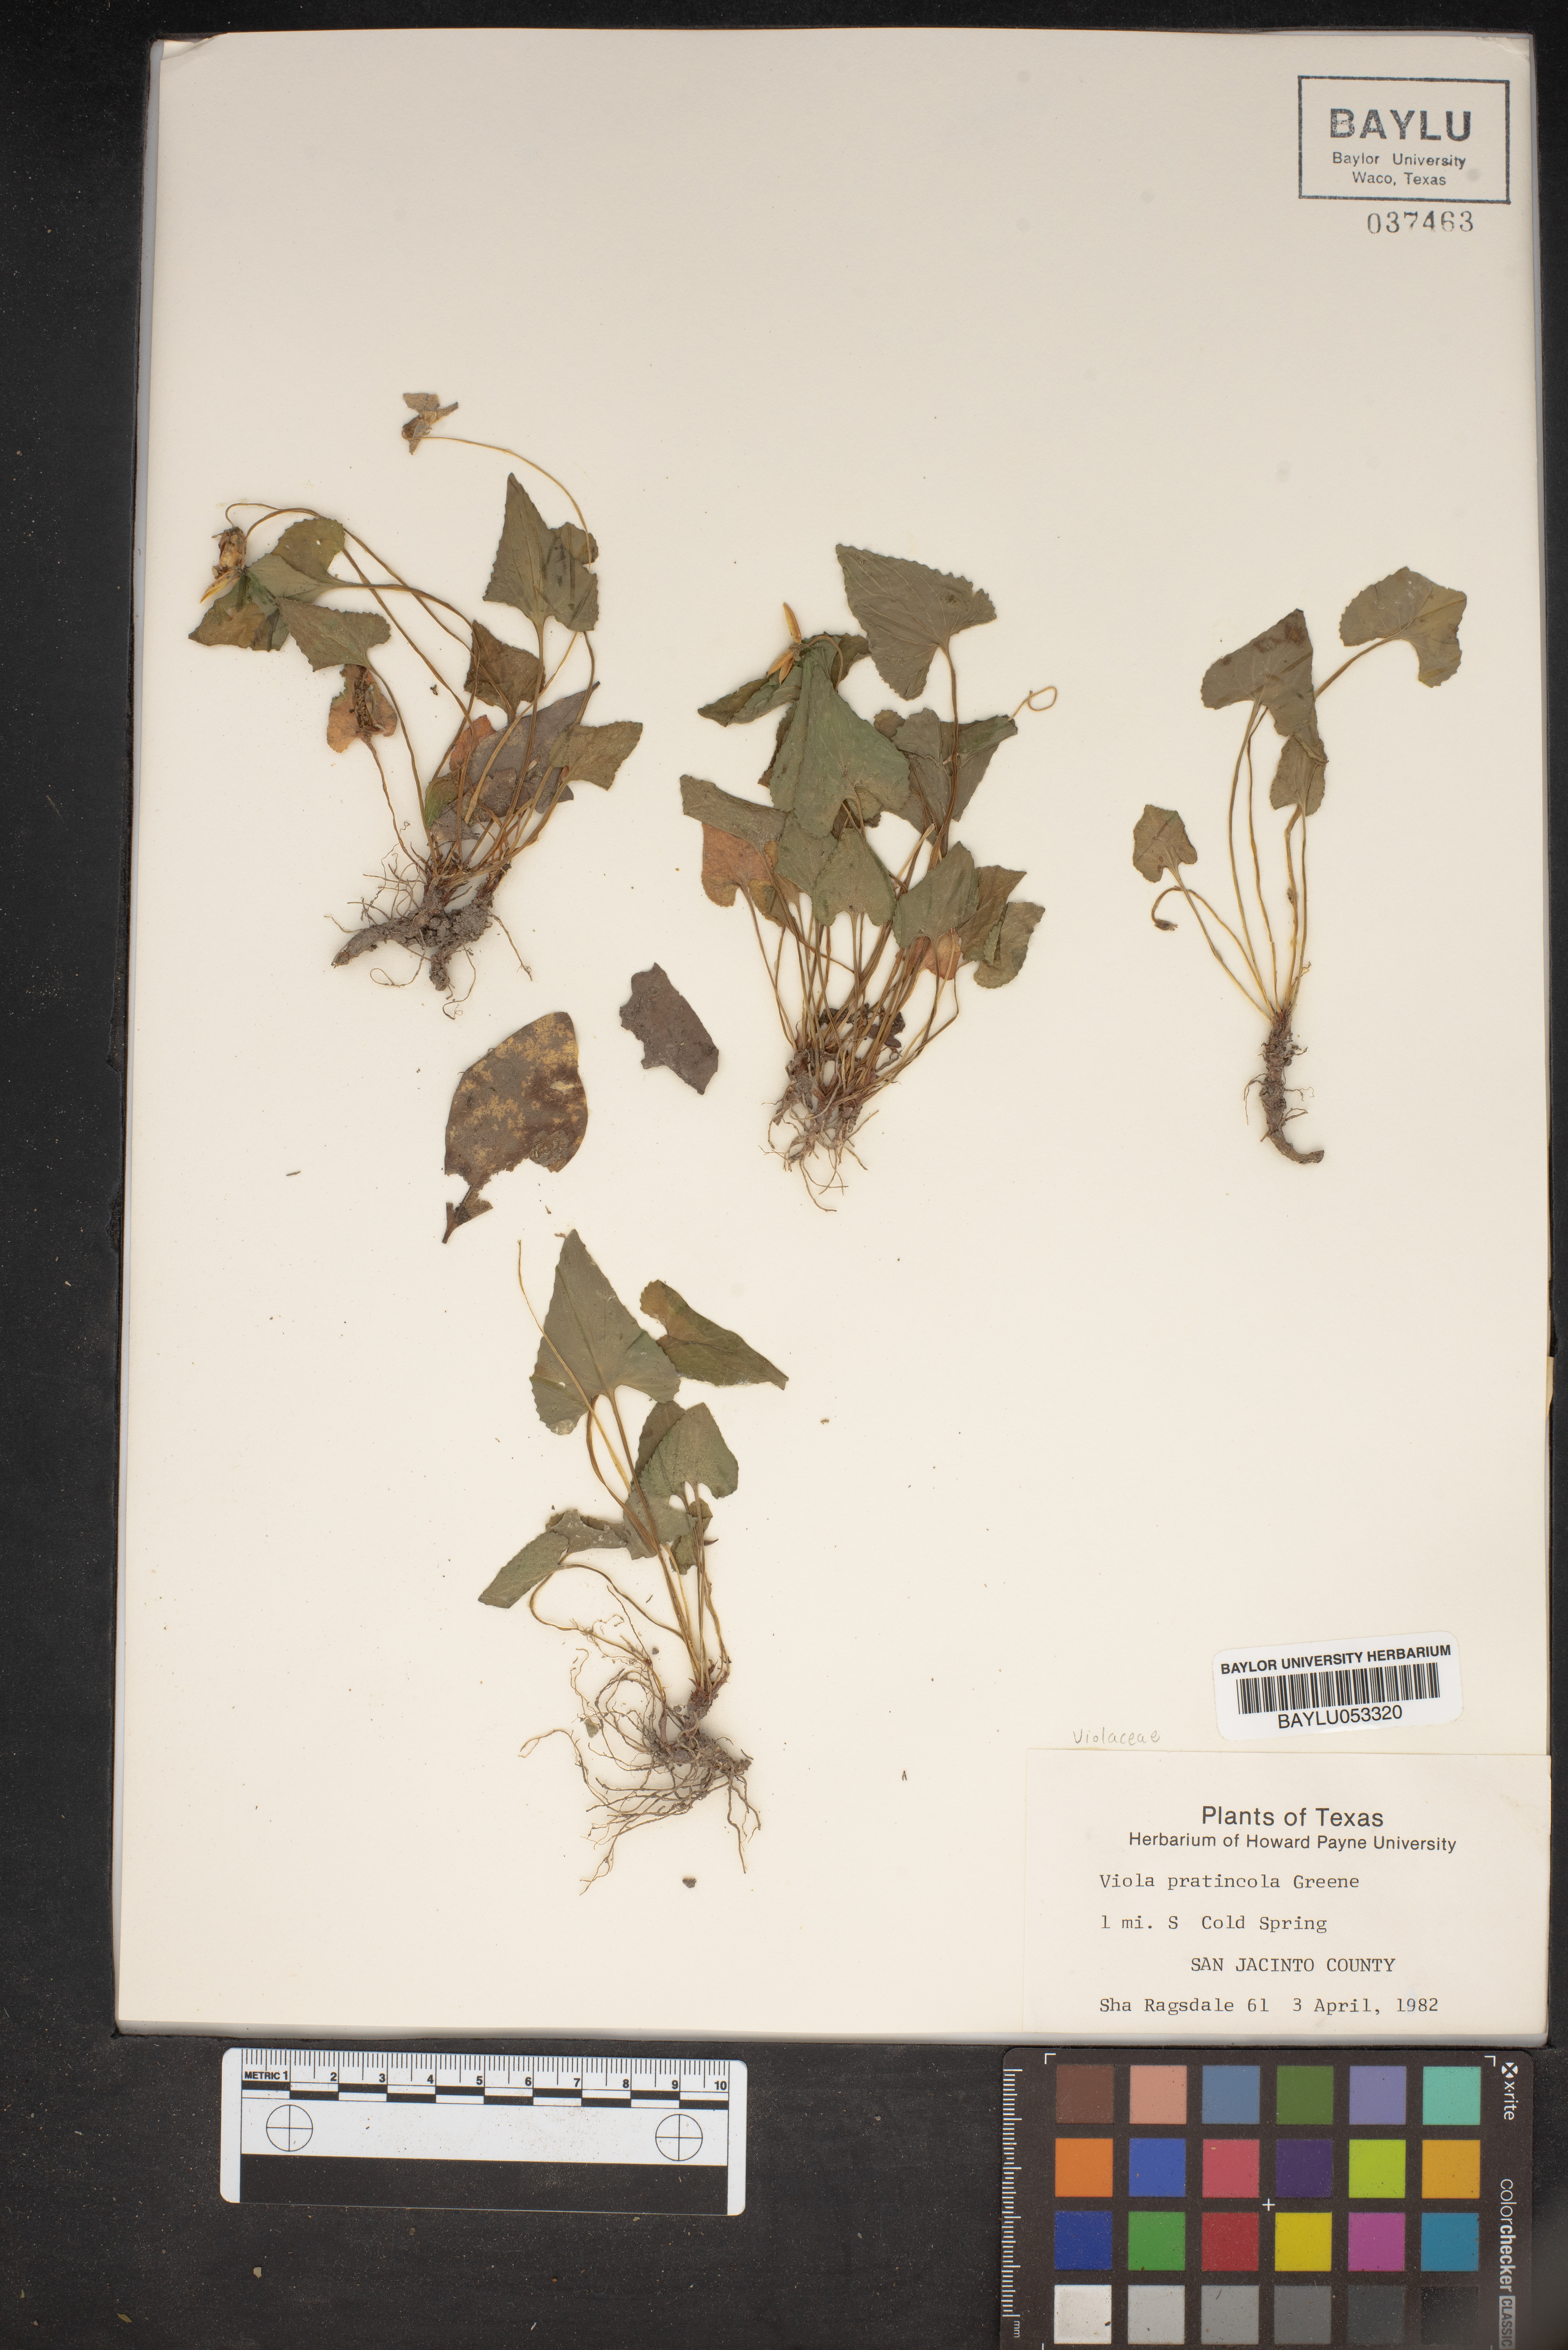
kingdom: Plantae
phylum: Tracheophyta
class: Magnoliopsida
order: Malpighiales
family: Violaceae
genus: Viola
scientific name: Viola pratincola
